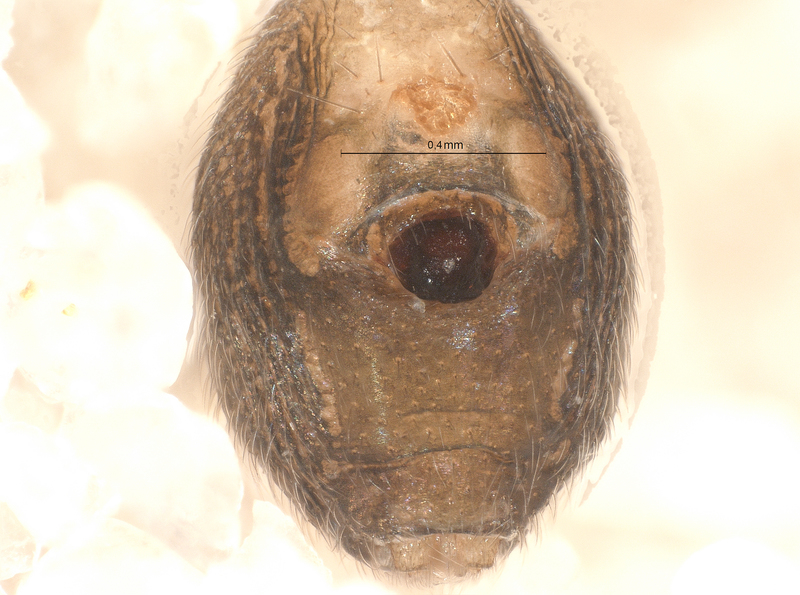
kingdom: Animalia
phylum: Arthropoda
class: Arachnida
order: Araneae
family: Linyphiidae
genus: Mermessus
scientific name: Mermessus trilobatus
